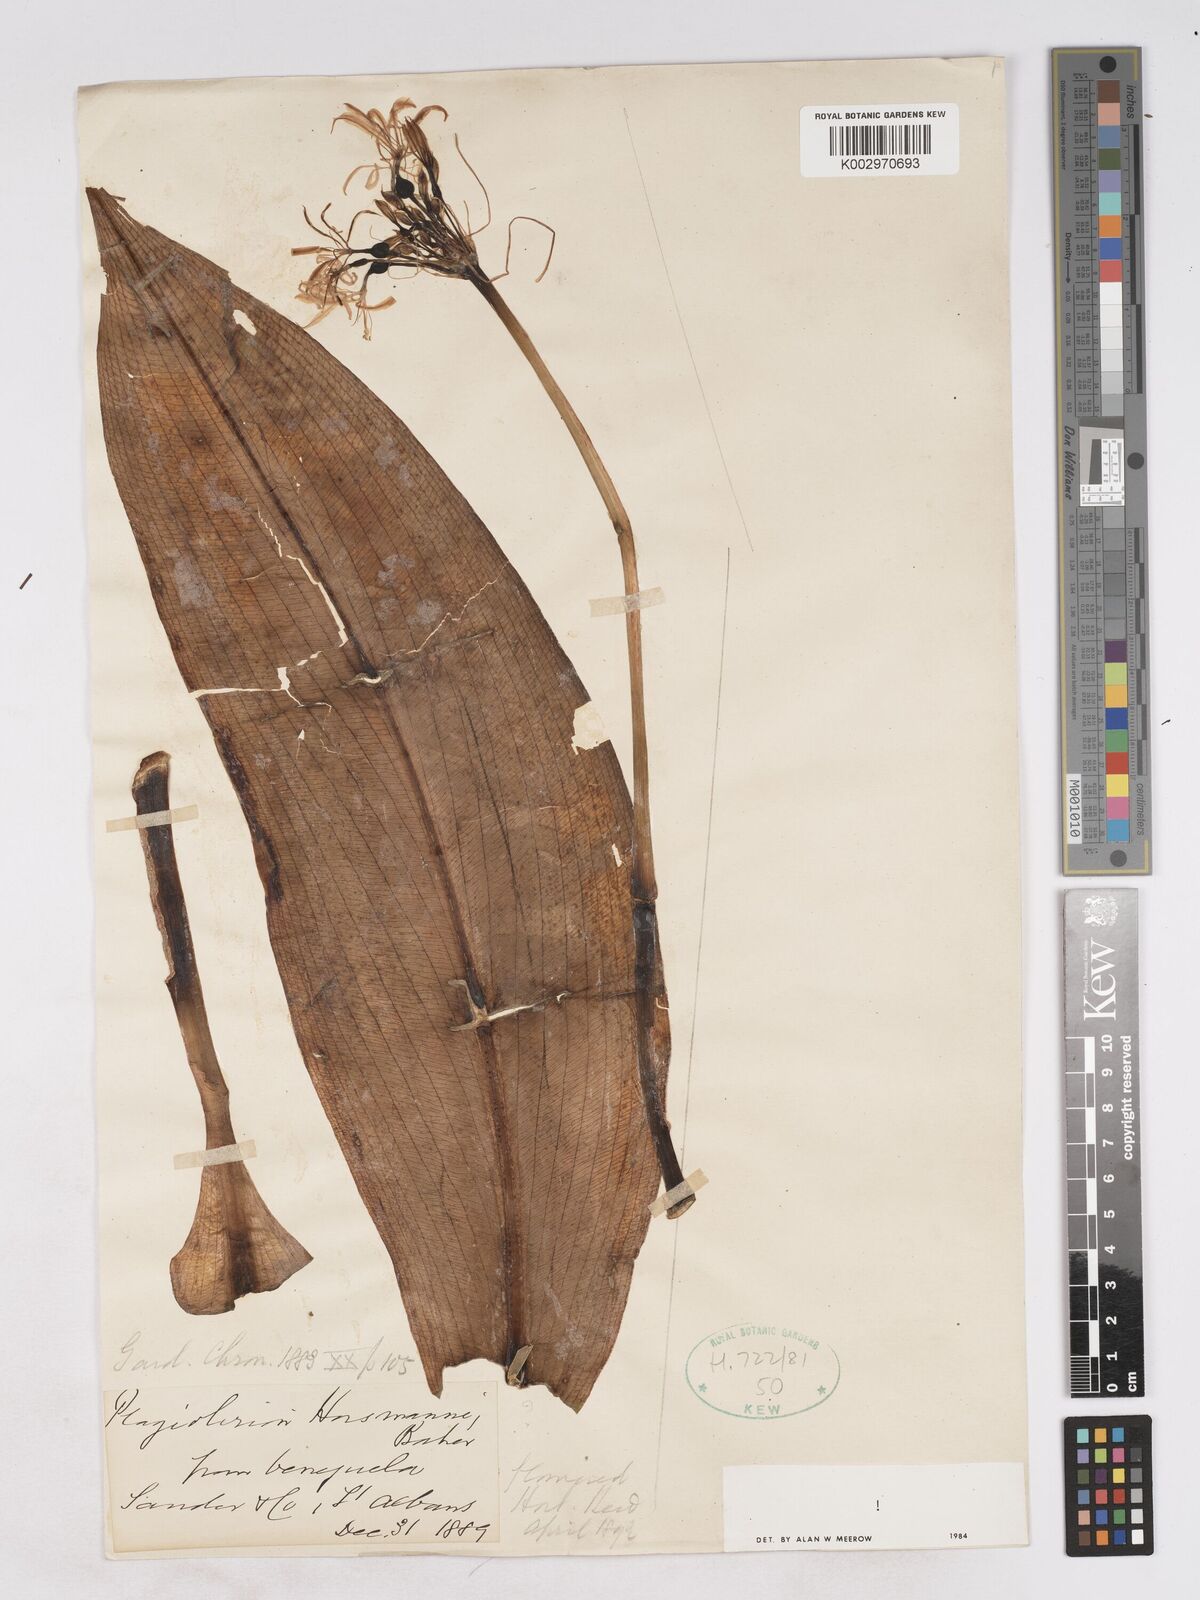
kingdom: Plantae
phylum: Tracheophyta
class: Liliopsida
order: Asparagales
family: Amaryllidaceae
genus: Plagiolirion
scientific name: Plagiolirion horsmannii
